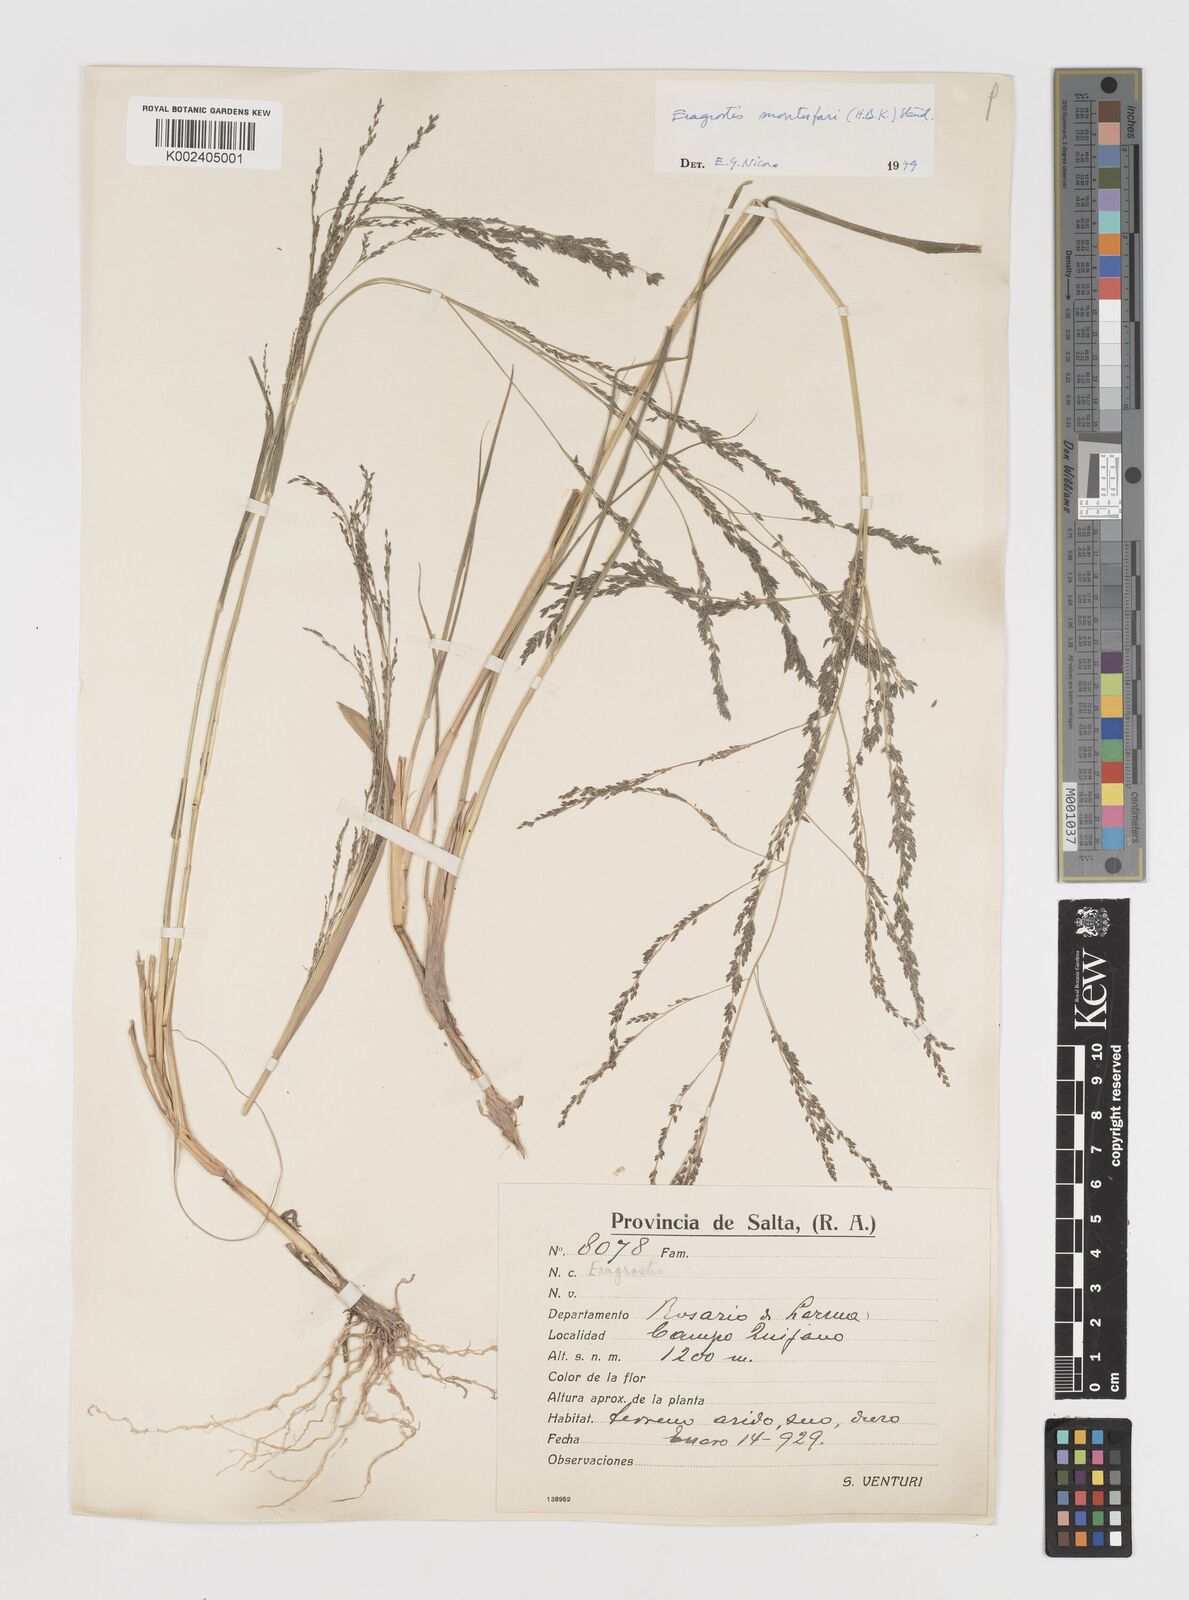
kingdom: Plantae
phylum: Tracheophyta
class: Liliopsida
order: Poales
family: Poaceae
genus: Eragrostis
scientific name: Eragrostis pastoensis
